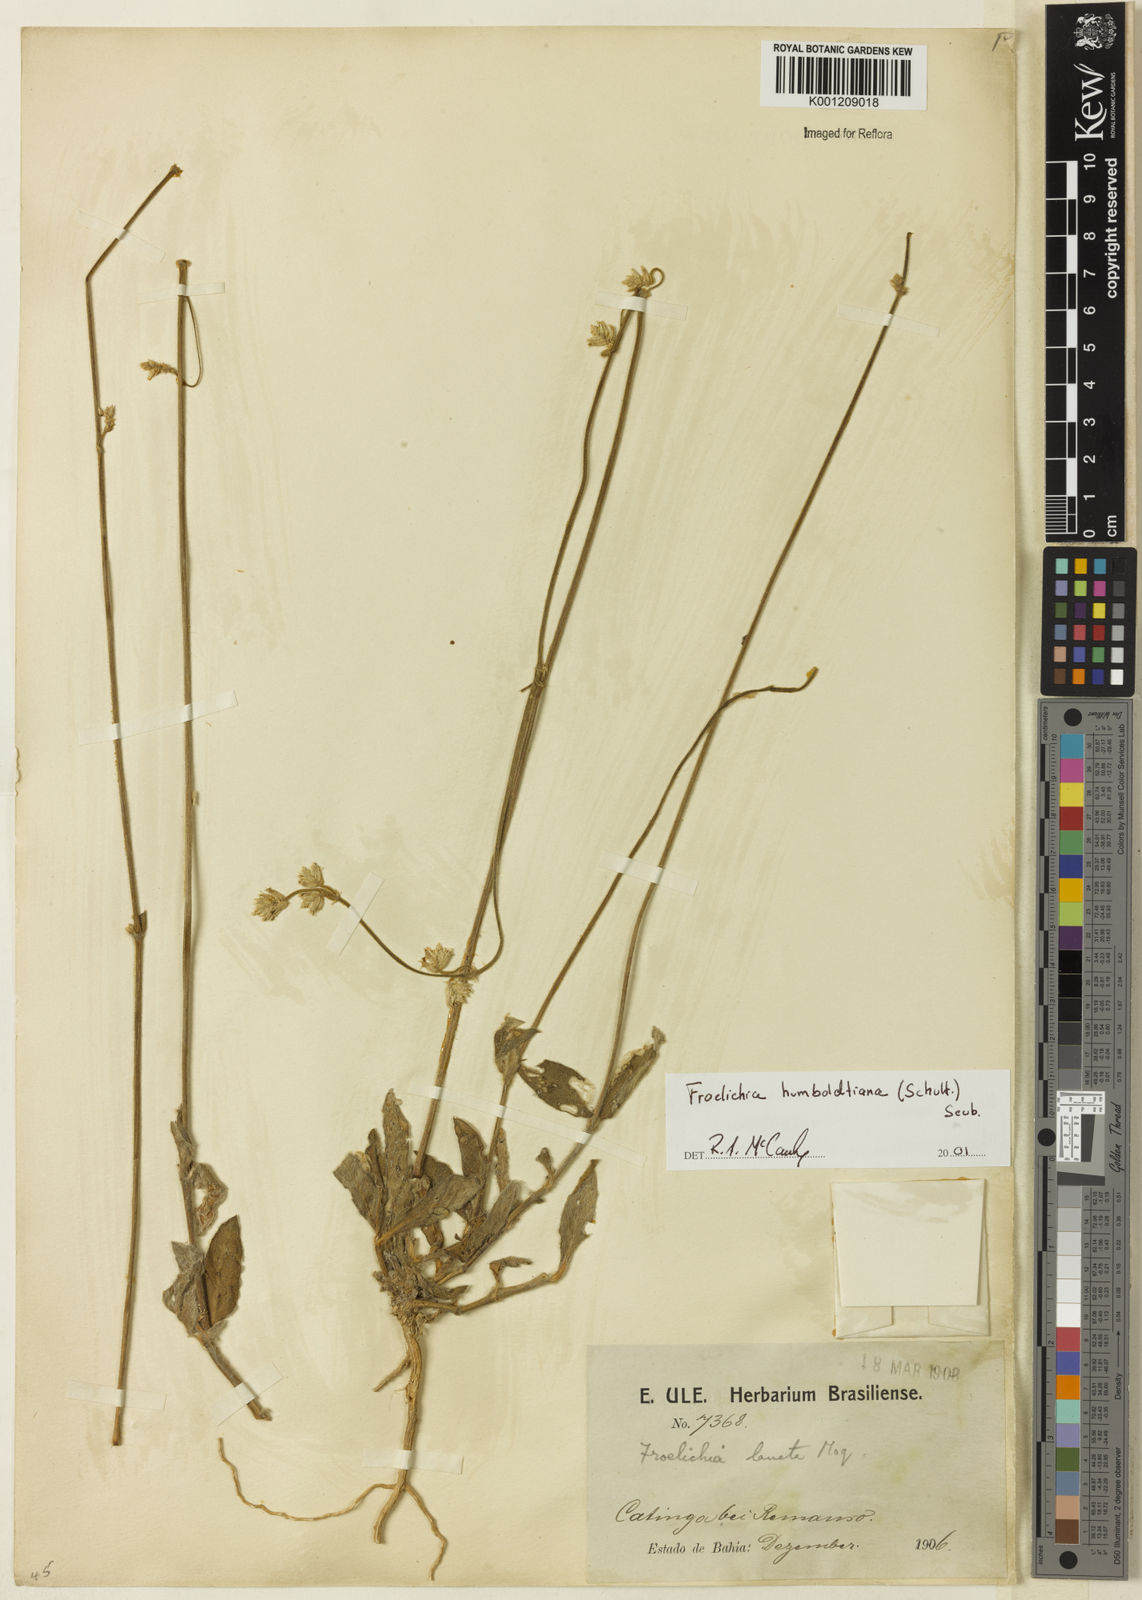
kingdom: Plantae
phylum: Tracheophyta
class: Magnoliopsida
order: Caryophyllales
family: Amaranthaceae
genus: Froelichia
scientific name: Froelichia humboldtiana
